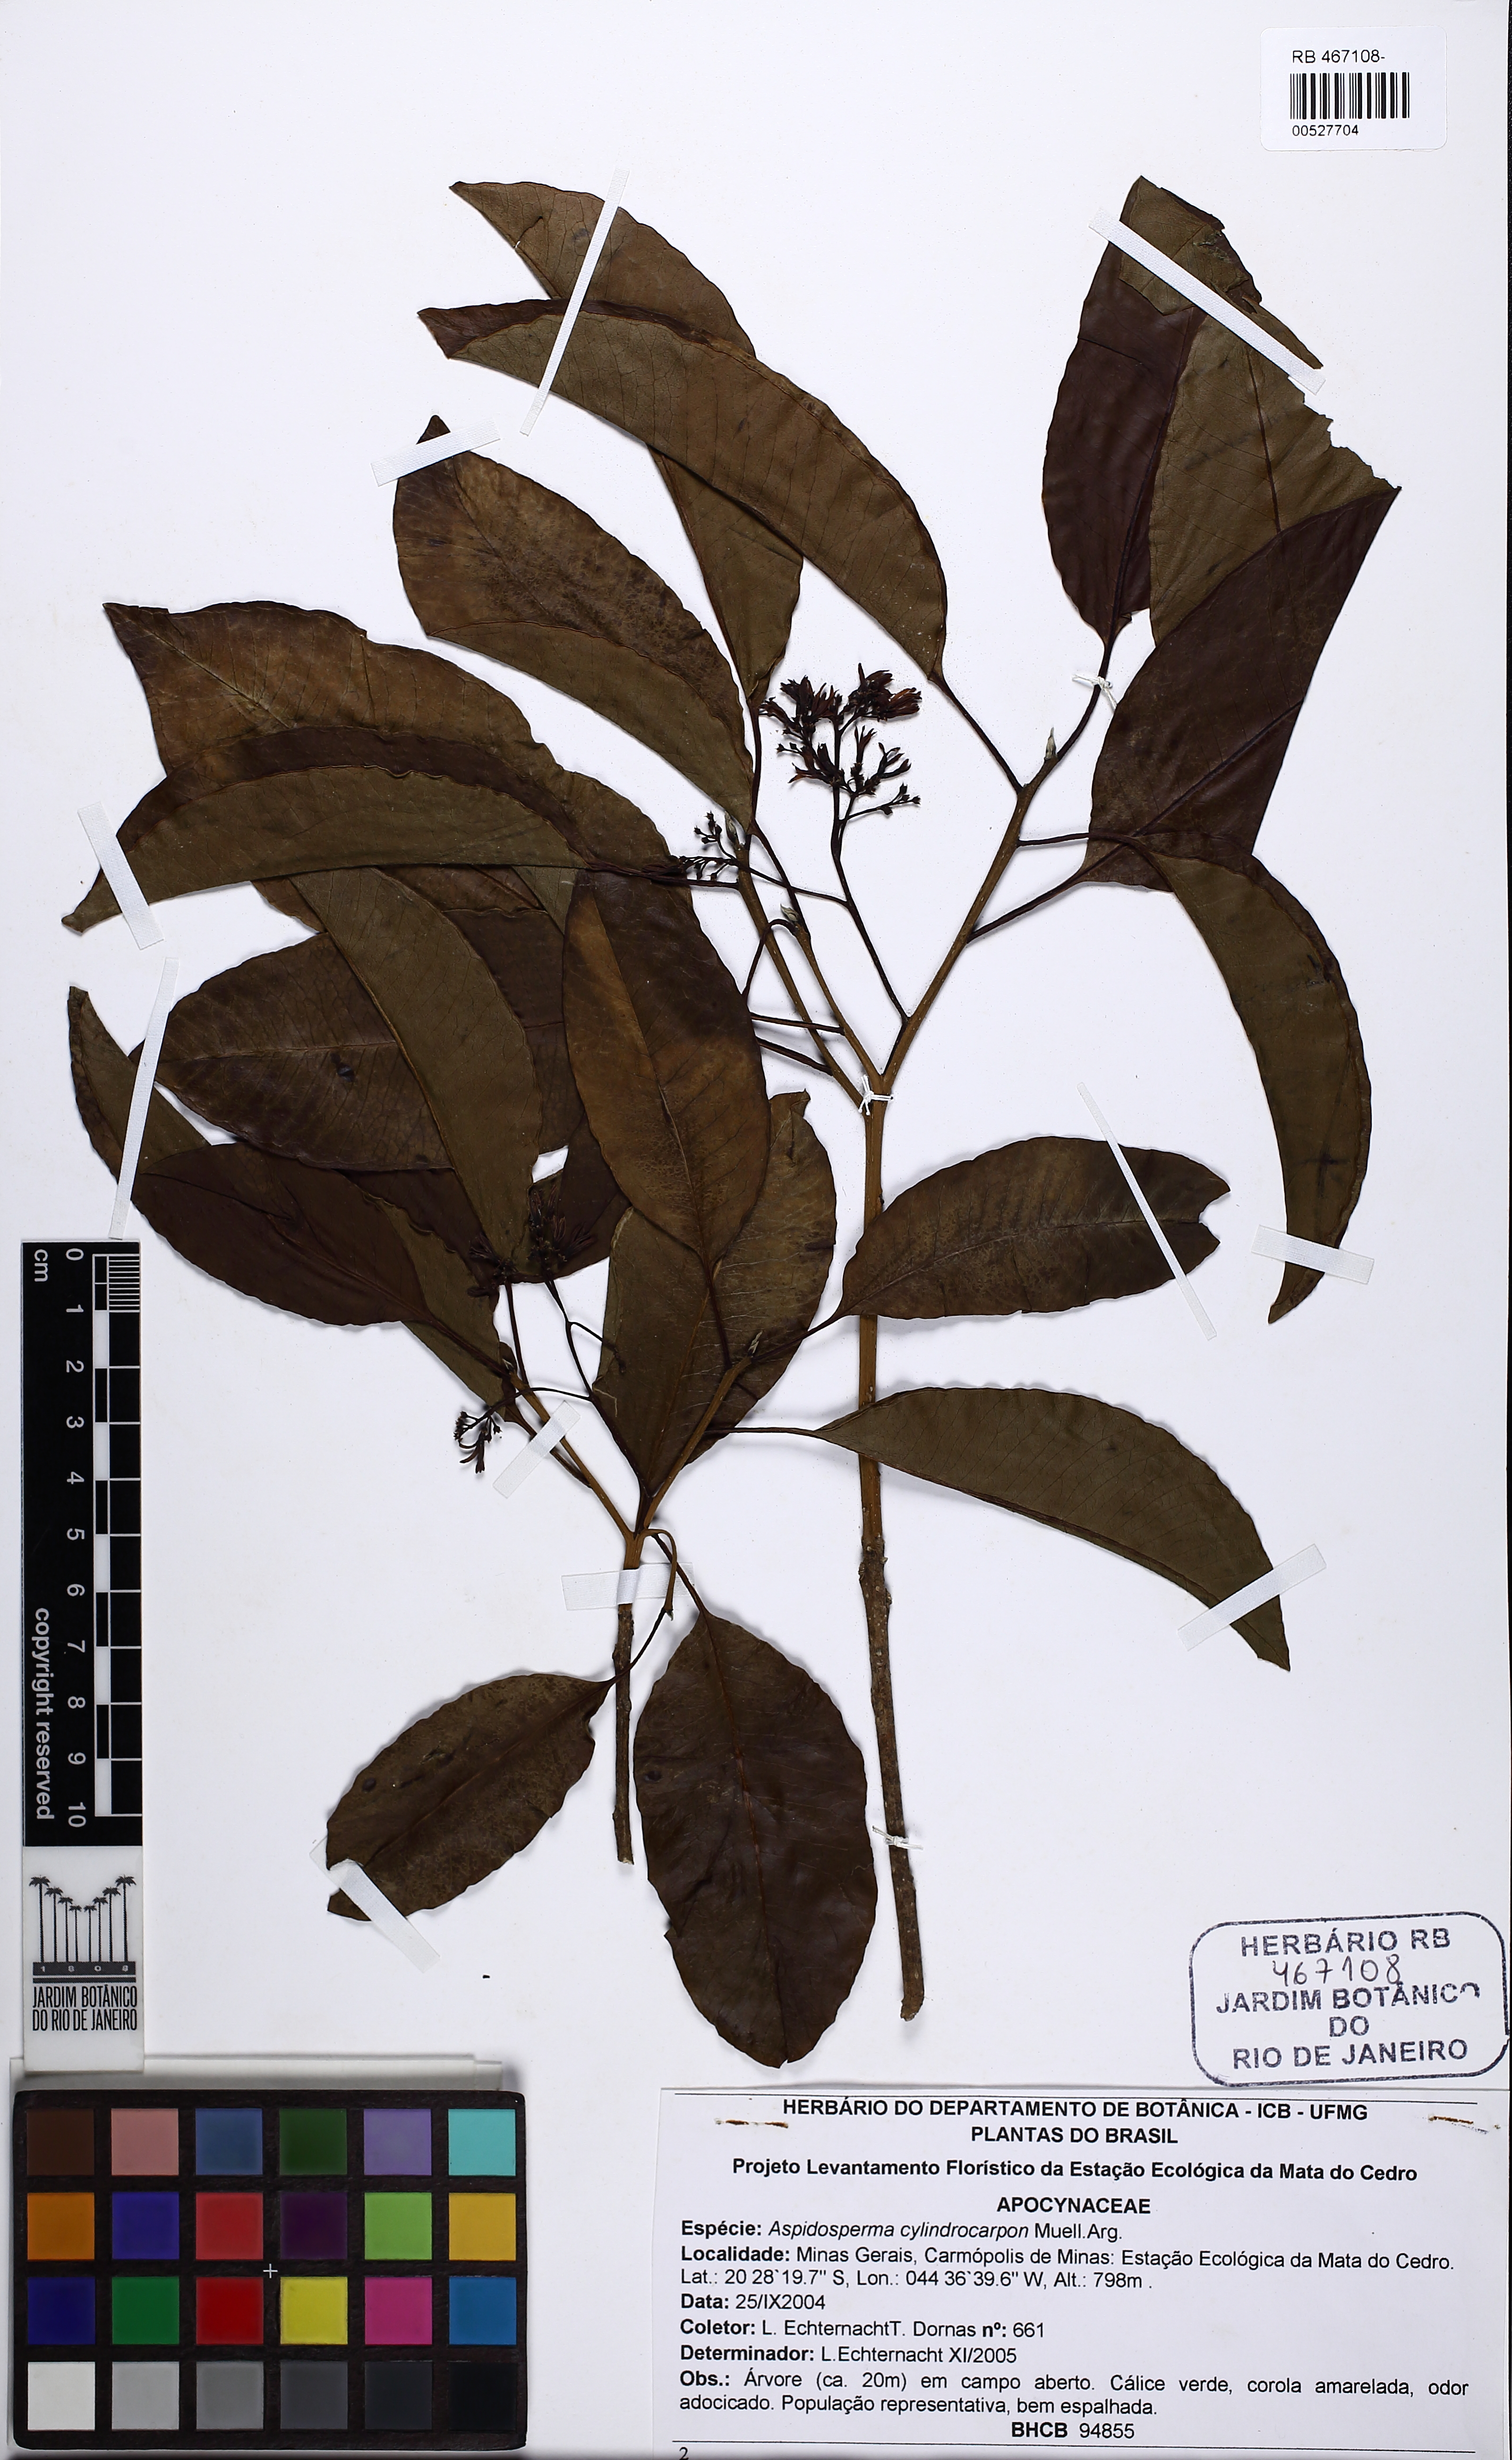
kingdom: Plantae
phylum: Tracheophyta
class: Magnoliopsida
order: Gentianales
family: Apocynaceae
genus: Aspidosperma
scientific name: Aspidosperma cylindrocarpon
